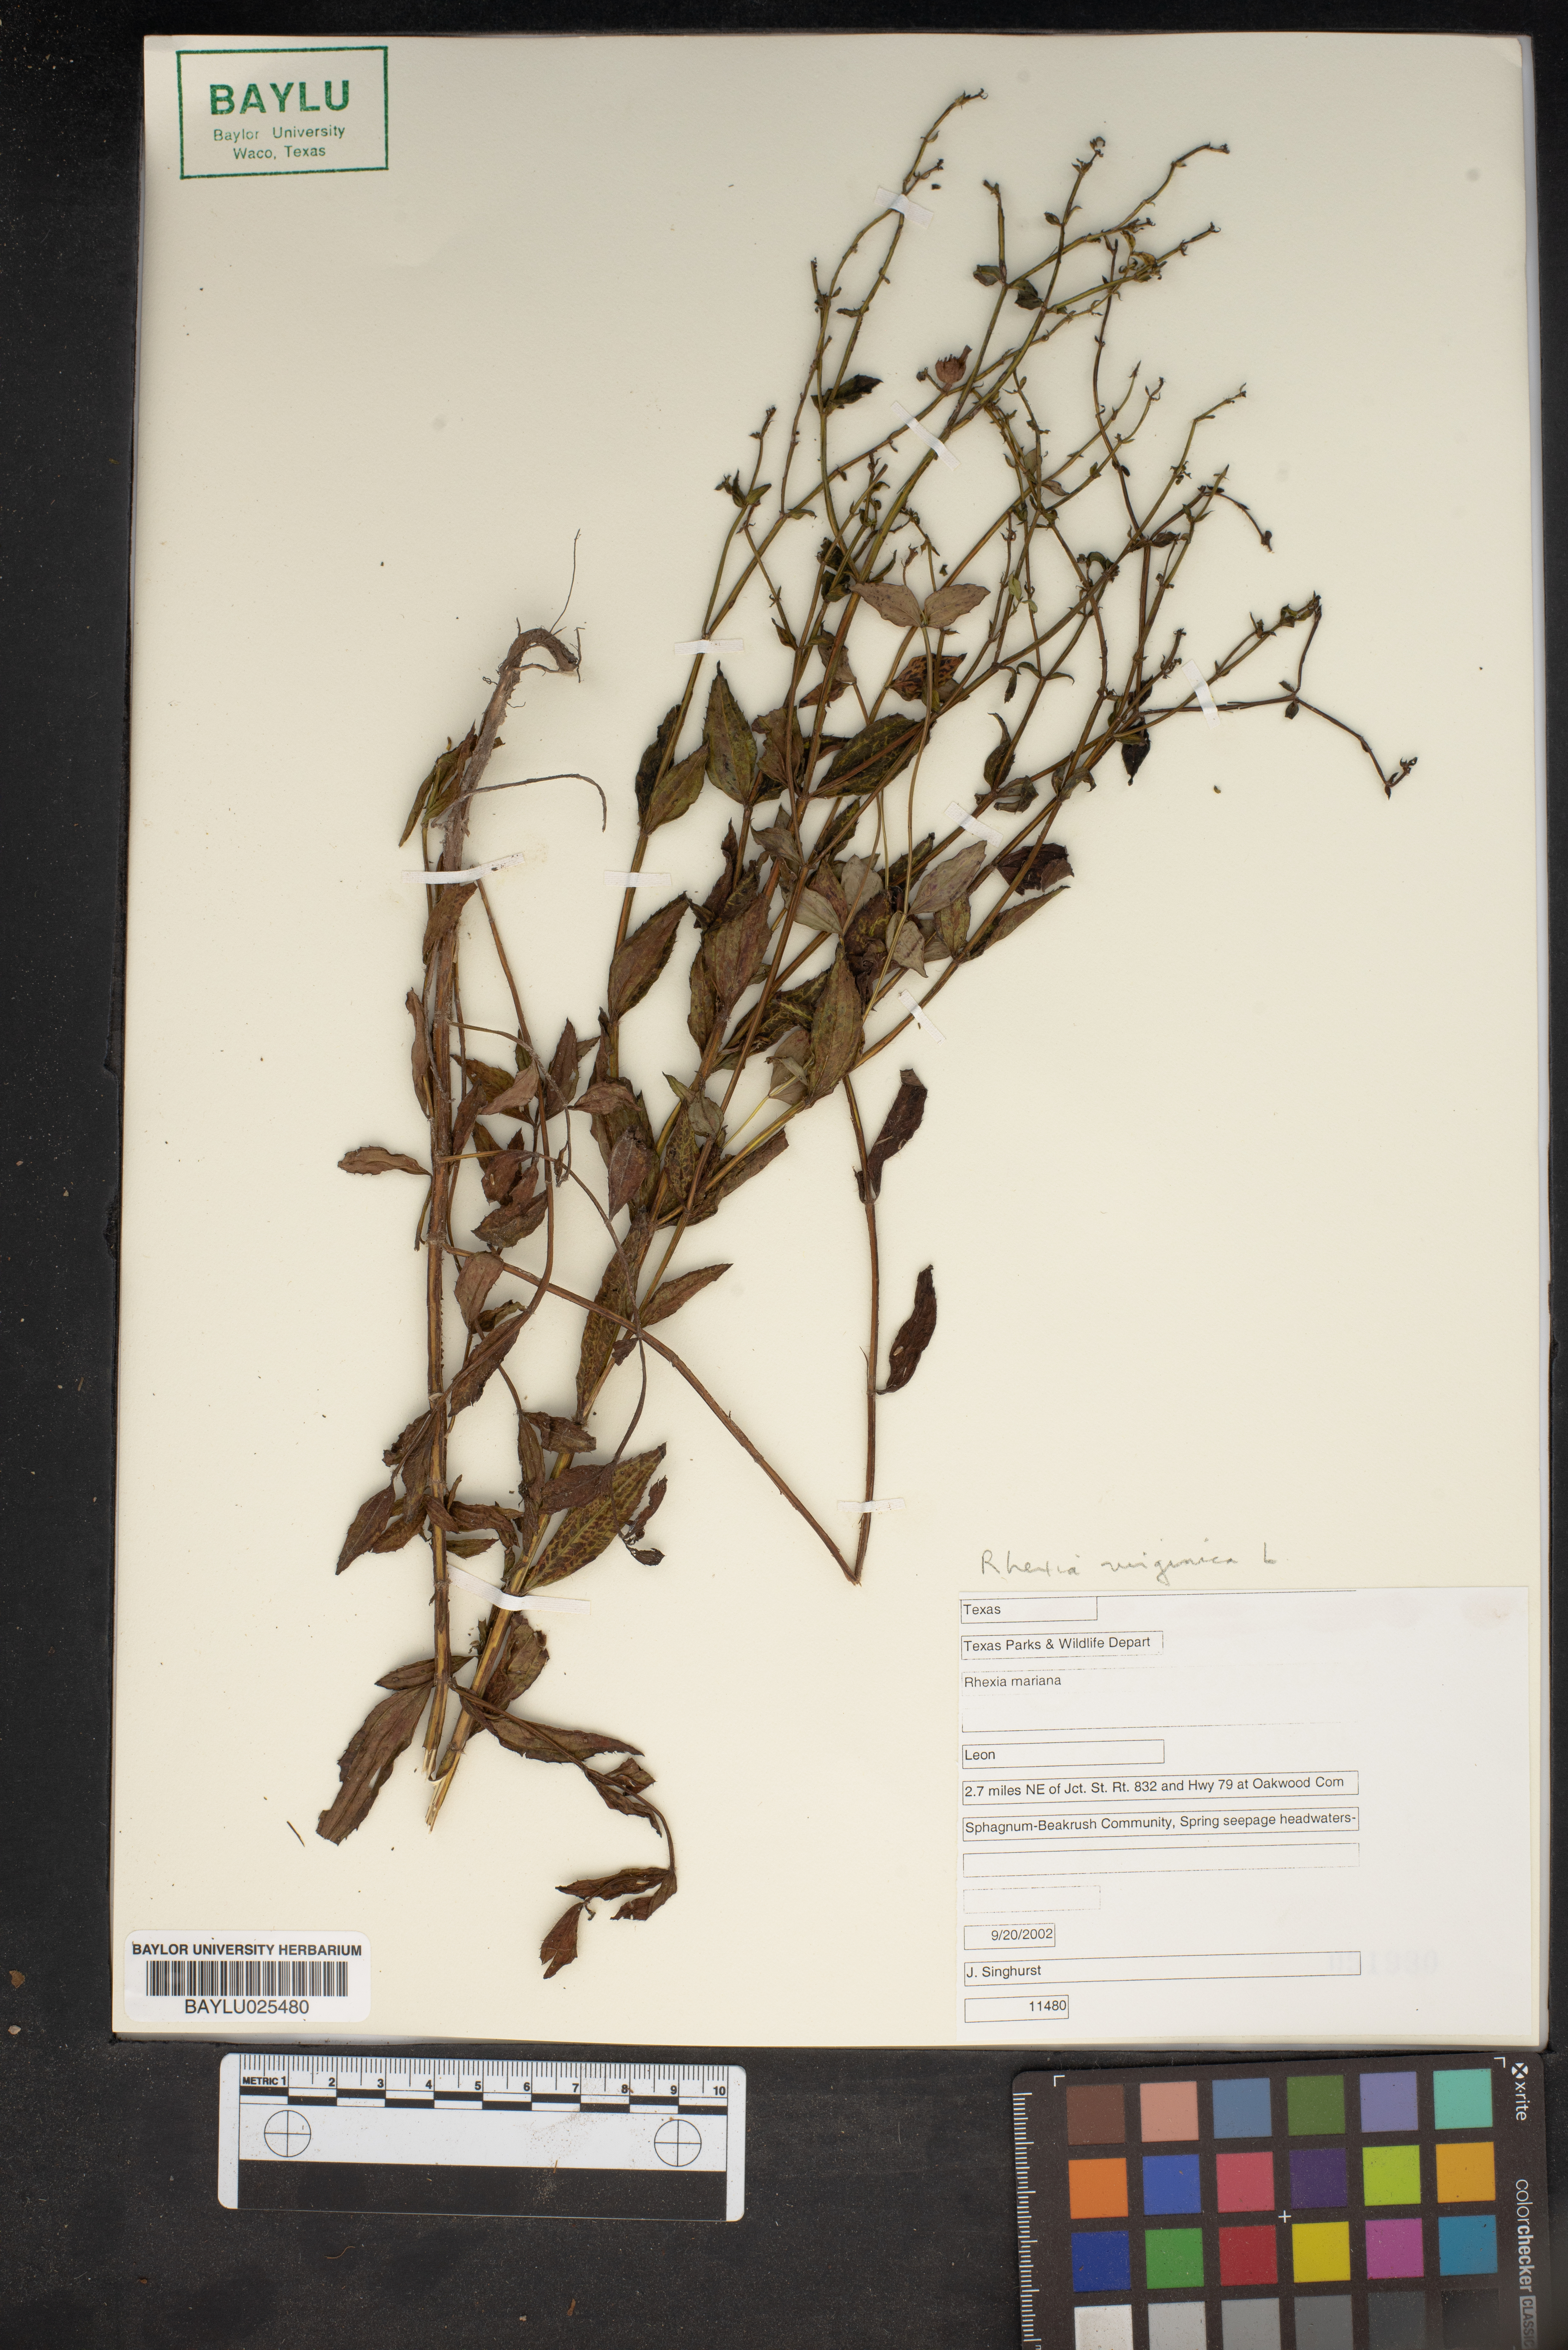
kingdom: Plantae
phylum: Tracheophyta
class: Magnoliopsida
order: Myrtales
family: Melastomataceae
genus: Rhexia
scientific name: Rhexia mariana
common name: Dull meadow-pitcher
